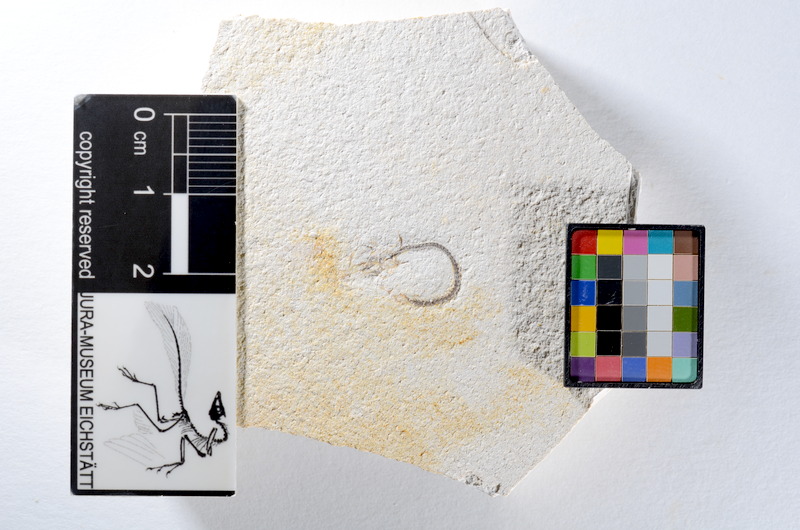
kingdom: Animalia
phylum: Chordata
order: Salmoniformes
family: Orthogonikleithridae
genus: Orthogonikleithrus
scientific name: Orthogonikleithrus hoelli
